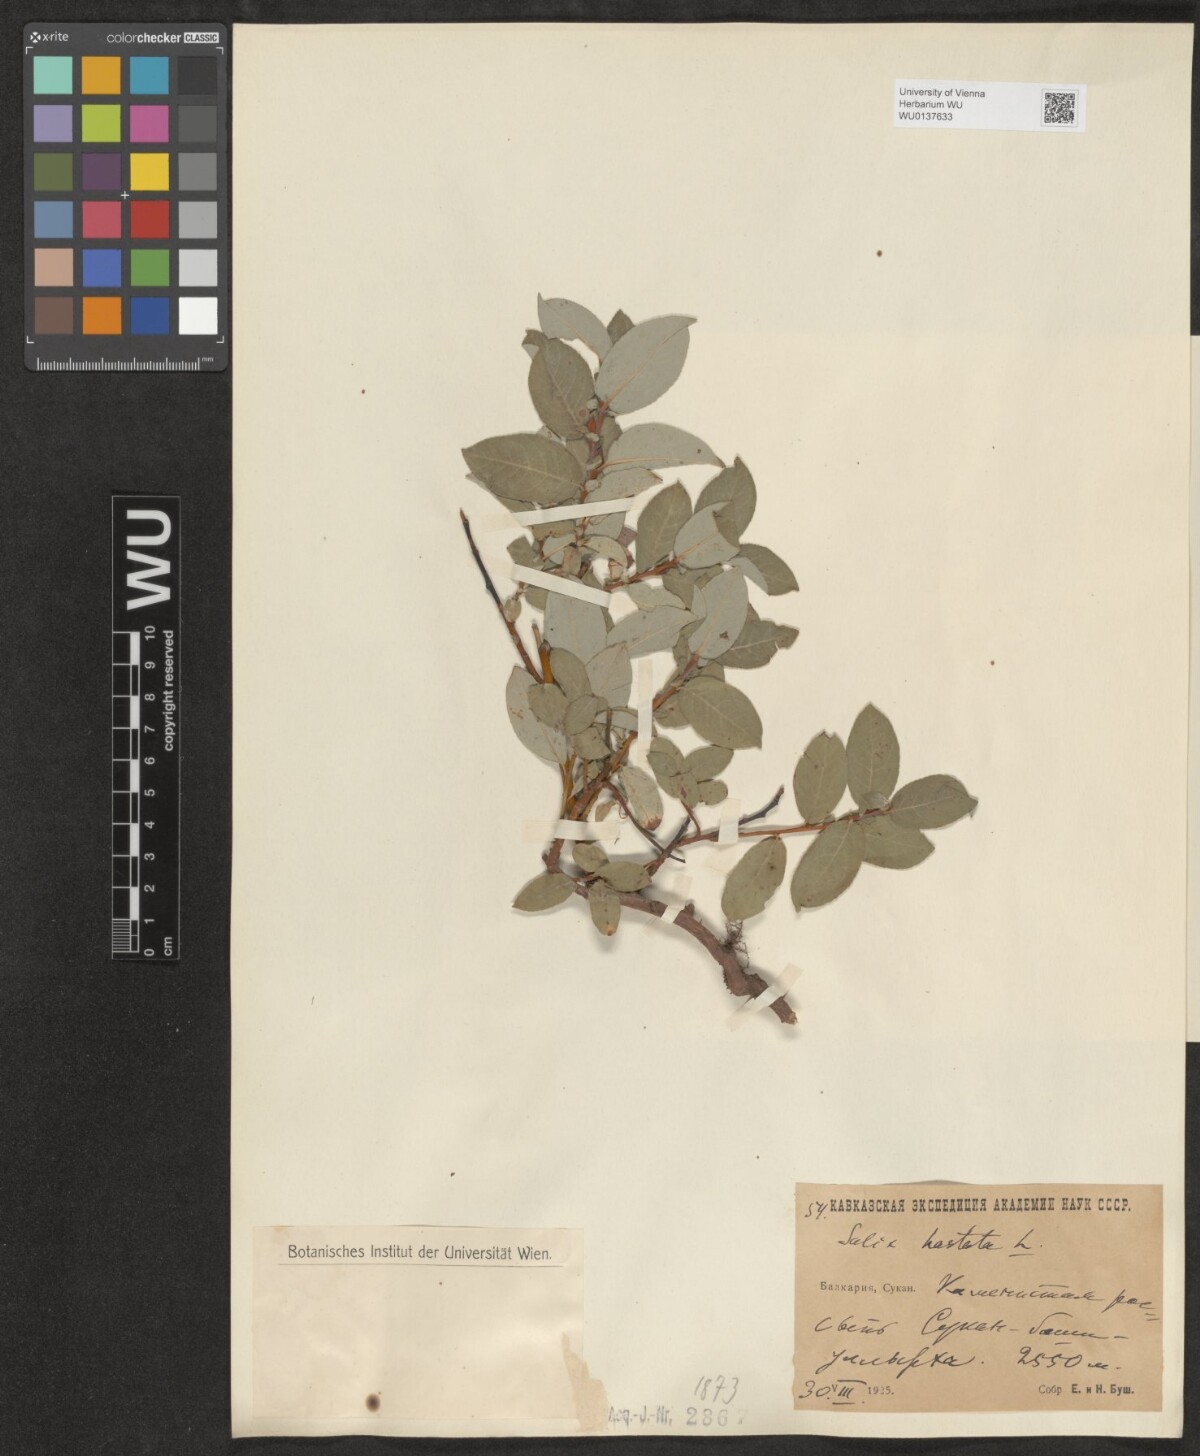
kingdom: Plantae
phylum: Tracheophyta
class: Magnoliopsida
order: Malpighiales
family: Salicaceae
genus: Salix
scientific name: Salix hastata
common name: Halberd willow
